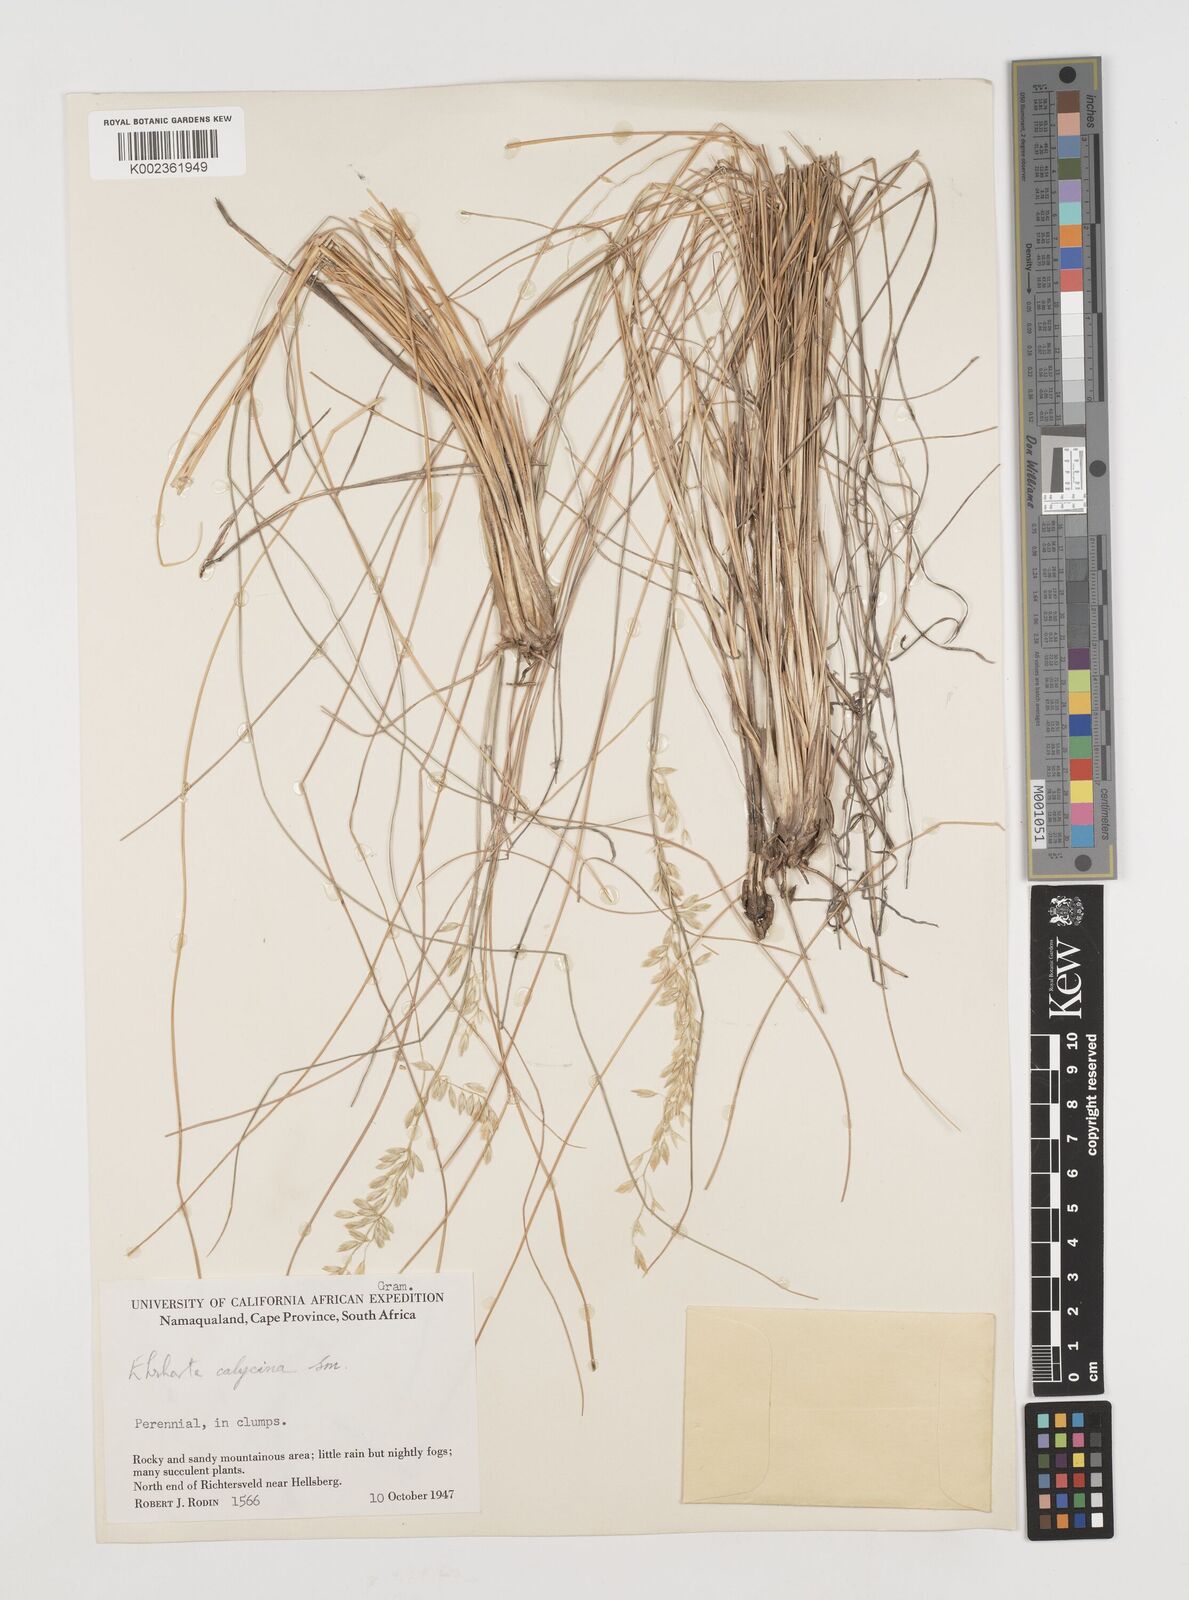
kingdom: Plantae
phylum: Tracheophyta
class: Liliopsida
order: Poales
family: Poaceae
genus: Ehrharta
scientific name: Ehrharta calycina
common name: Perennial veldtgrass
